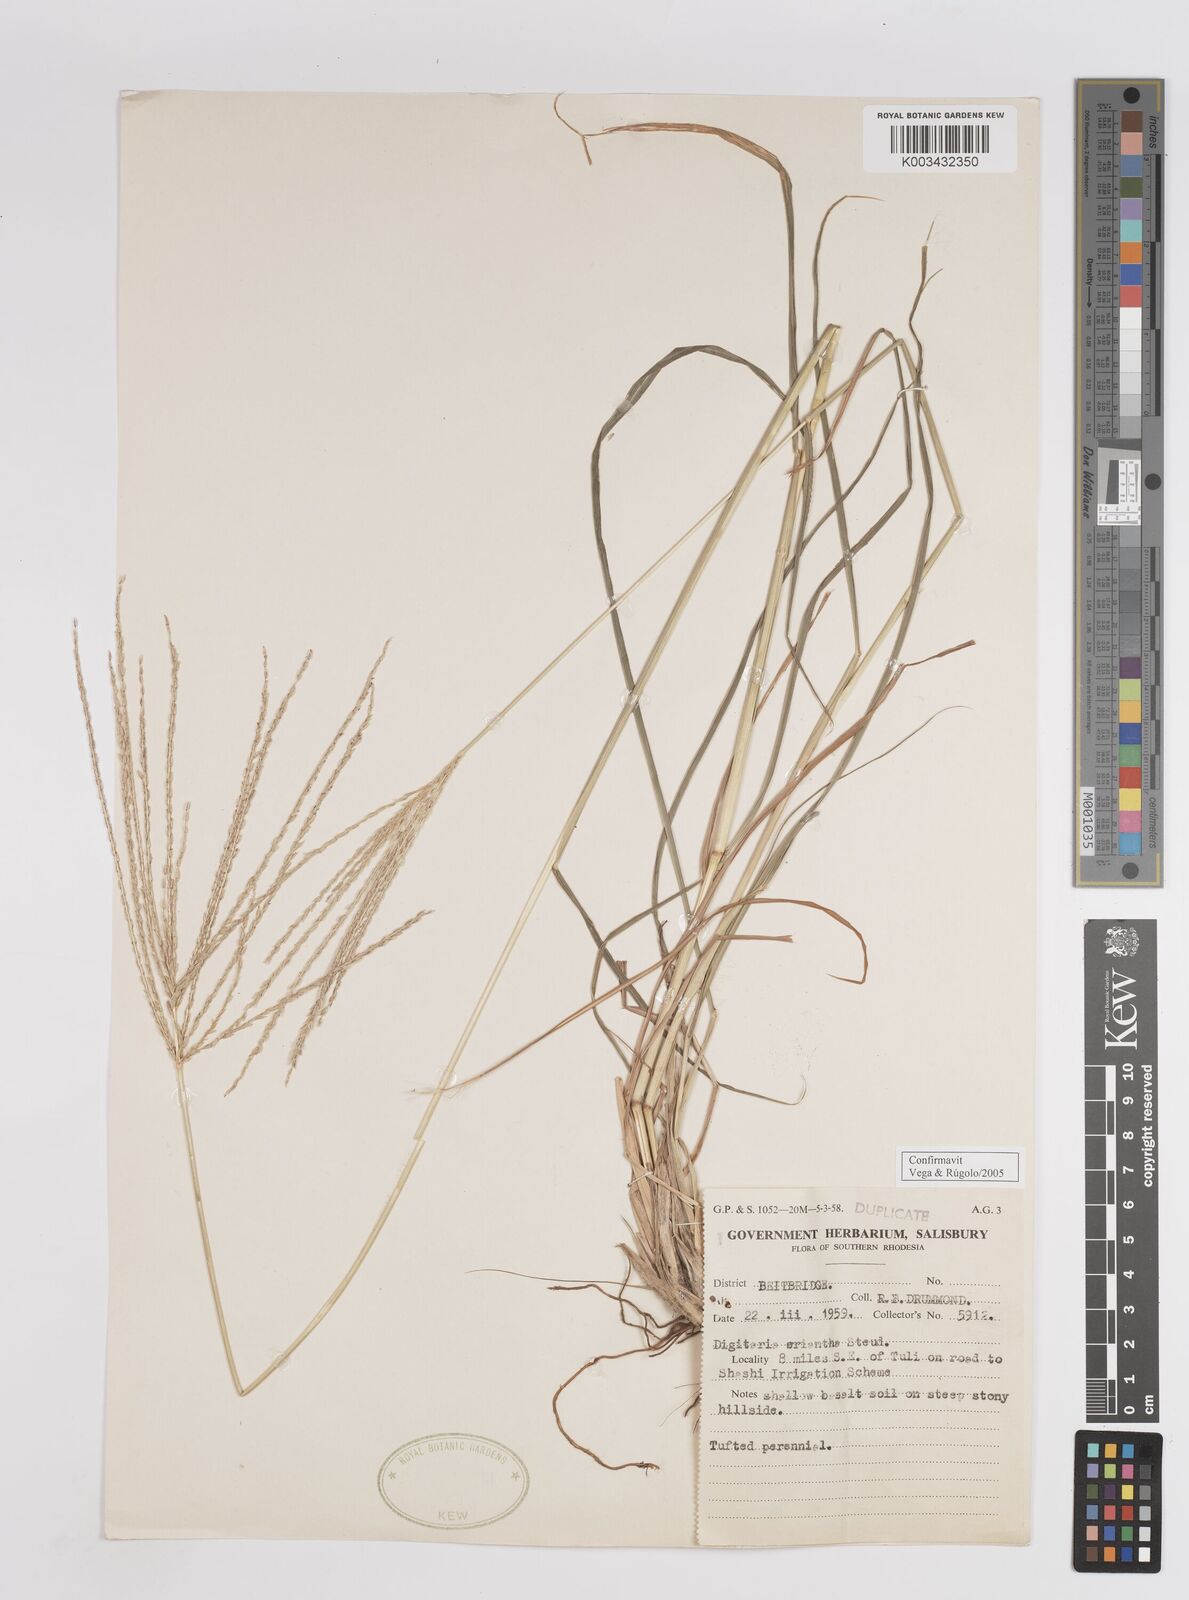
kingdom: Plantae
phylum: Tracheophyta
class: Liliopsida
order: Poales
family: Poaceae
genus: Digitaria
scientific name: Digitaria eriantha
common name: Digitgrass
